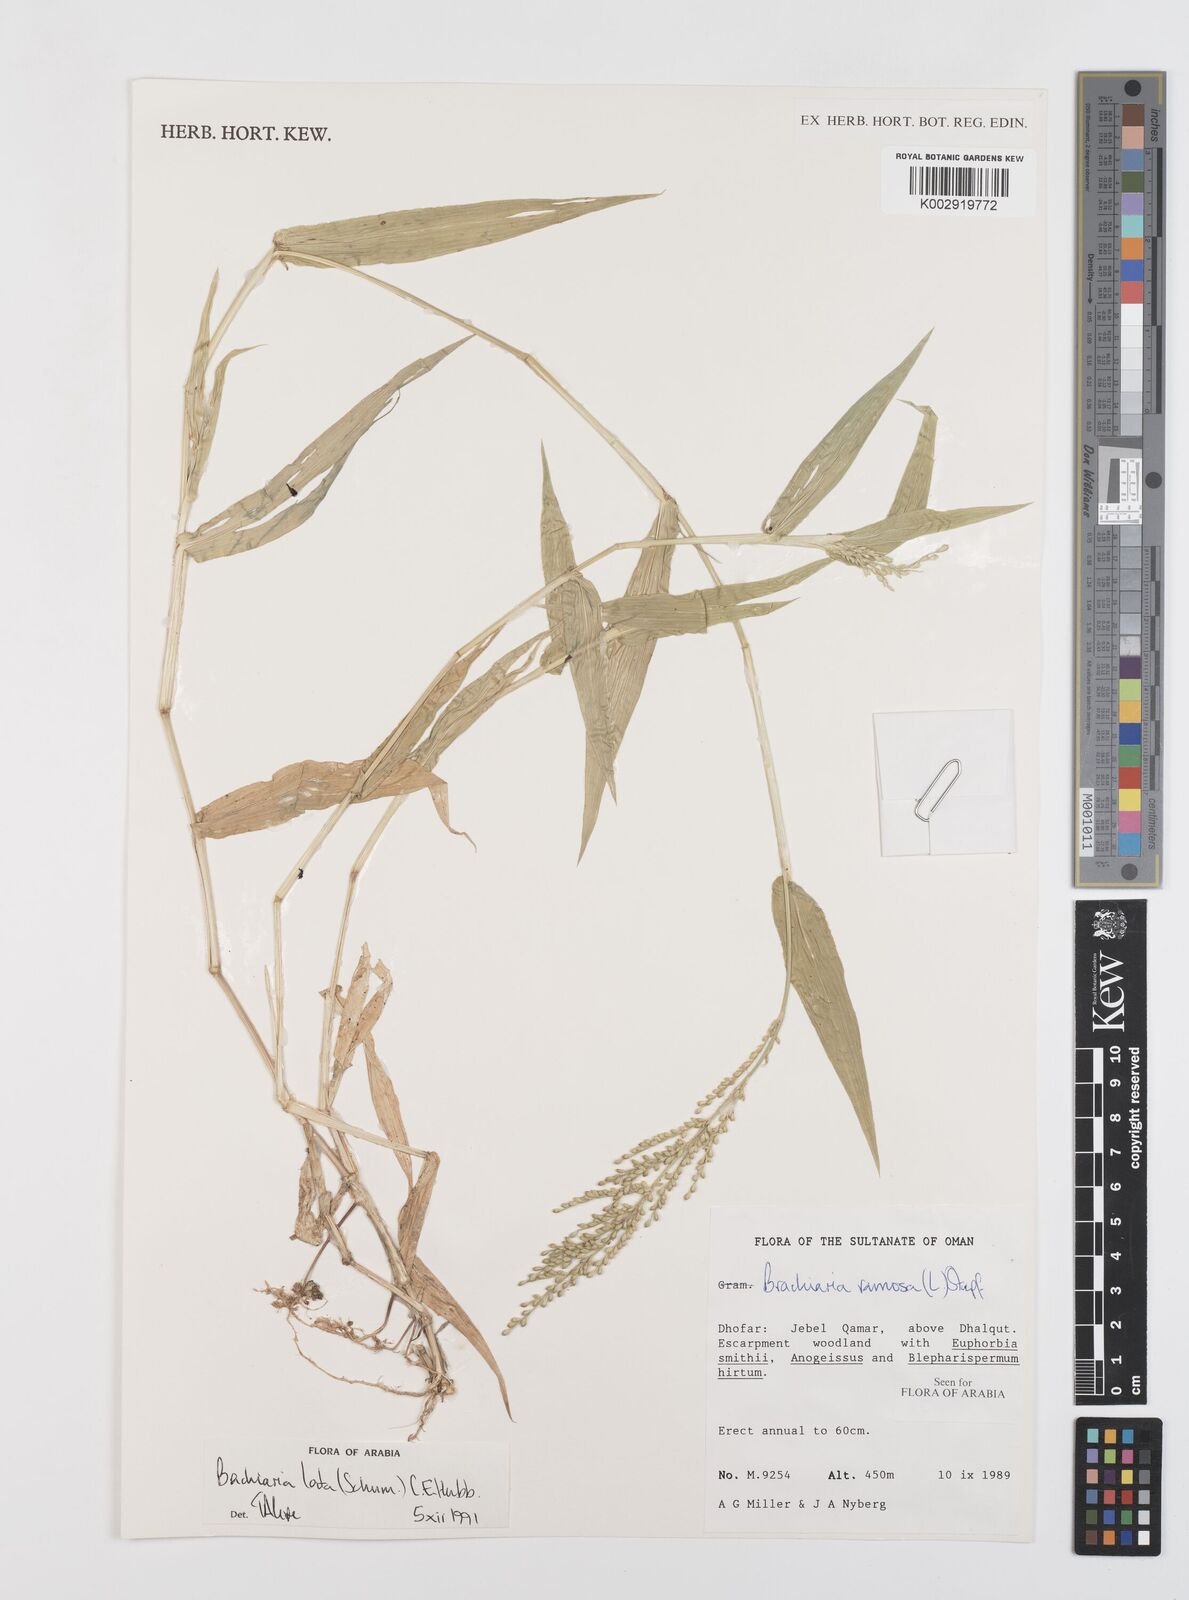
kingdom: Plantae
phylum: Tracheophyta
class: Liliopsida
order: Poales
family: Poaceae
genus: Urochloa
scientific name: Urochloa lata
